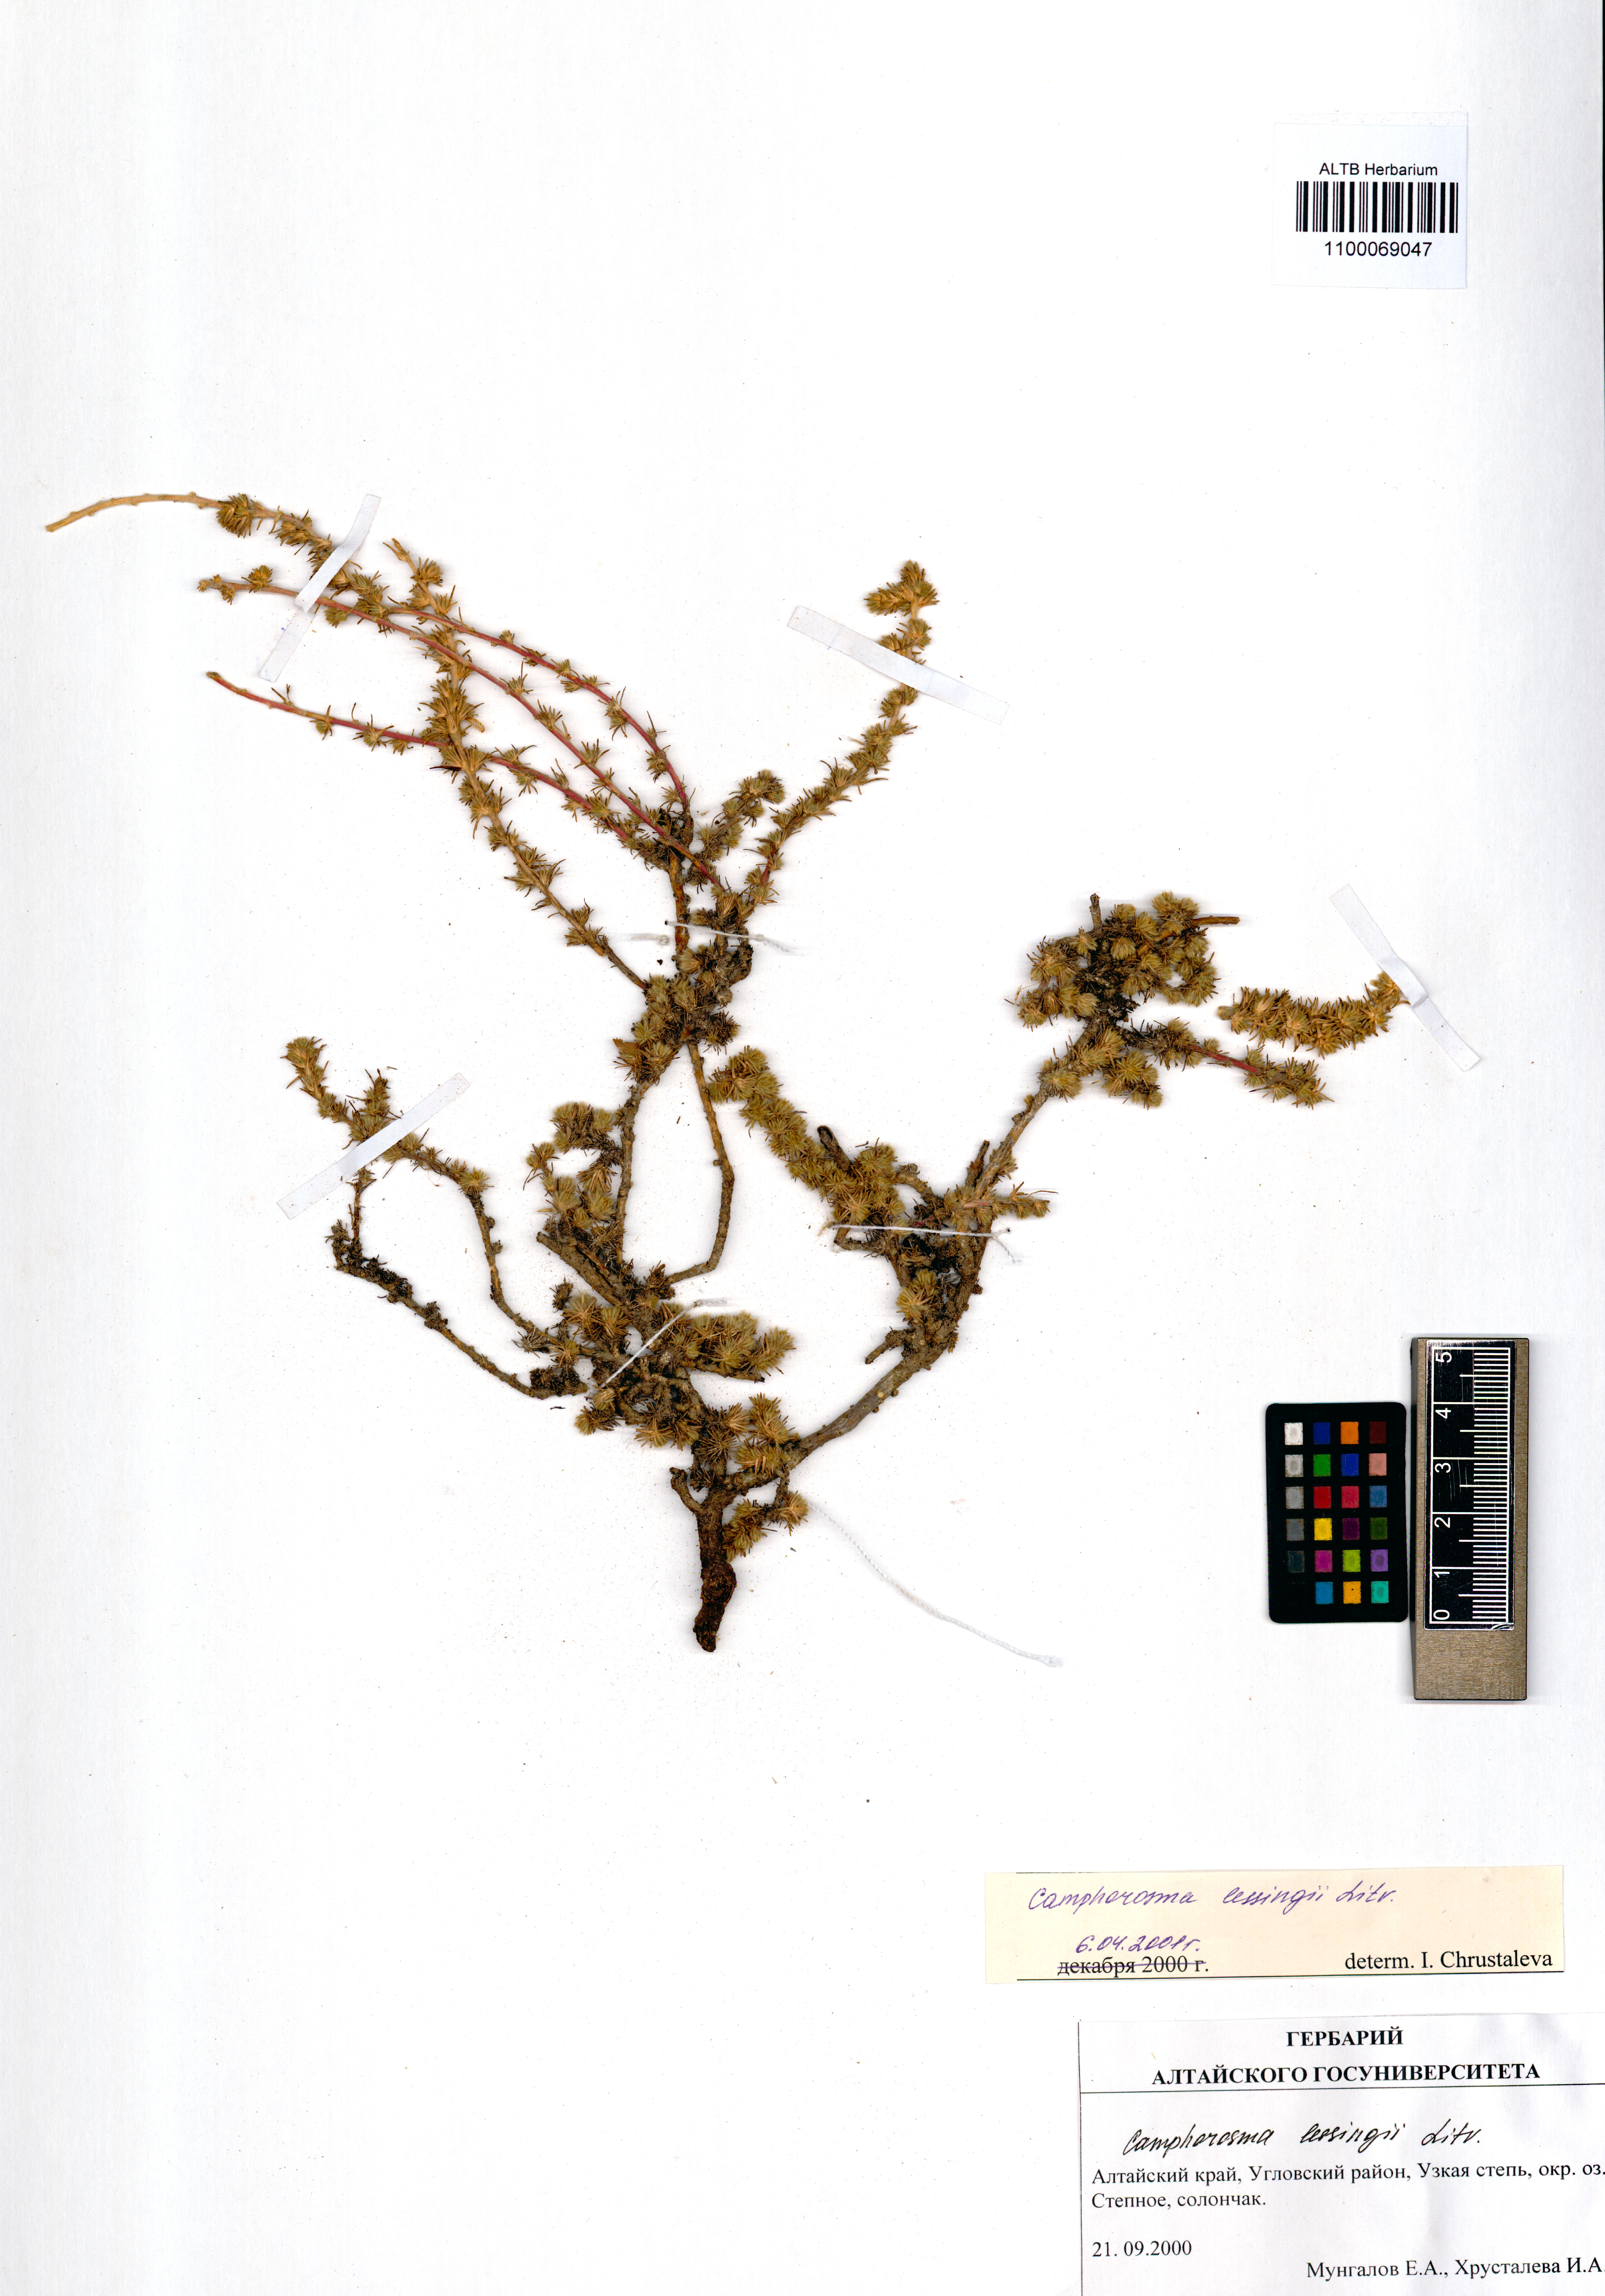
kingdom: Plantae
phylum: Tracheophyta
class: Magnoliopsida
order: Caryophyllales
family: Amaranthaceae
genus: Camphorosma
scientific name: Camphorosma monspeliaca
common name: Camphorfume
